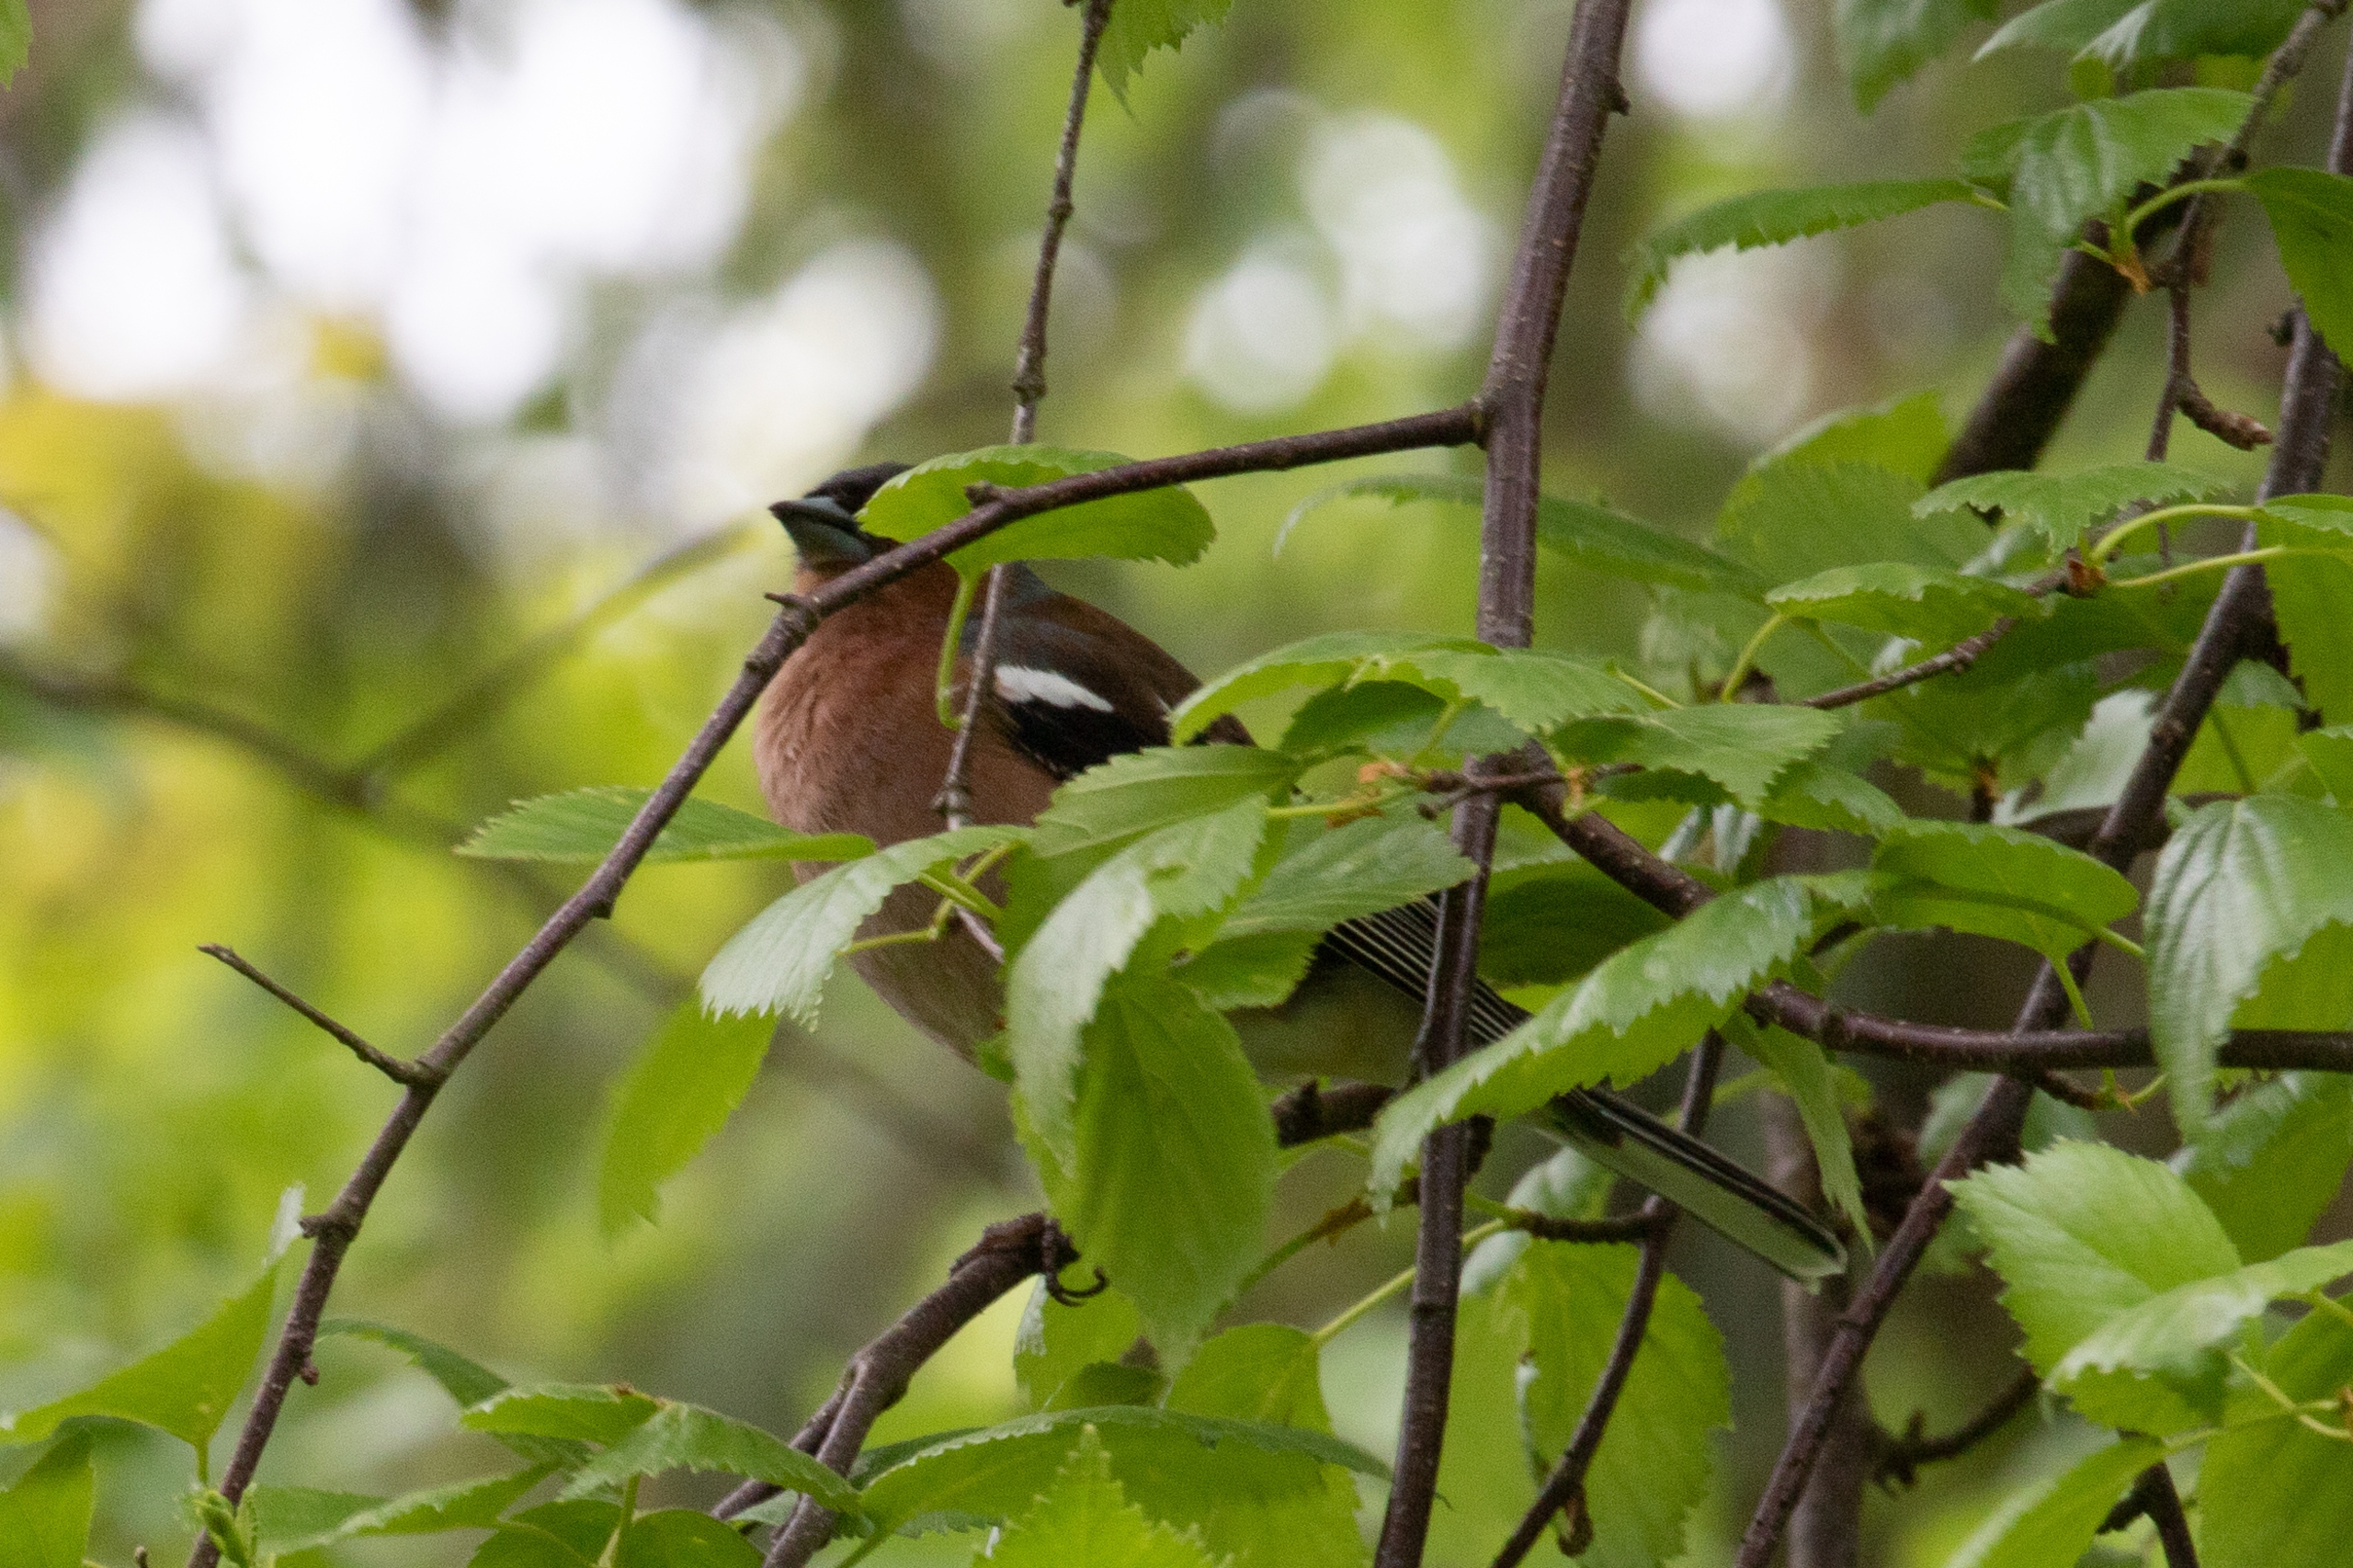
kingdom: Animalia
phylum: Chordata
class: Aves
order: Passeriformes
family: Fringillidae
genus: Fringilla
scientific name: Fringilla coelebs
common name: Bogfinke
